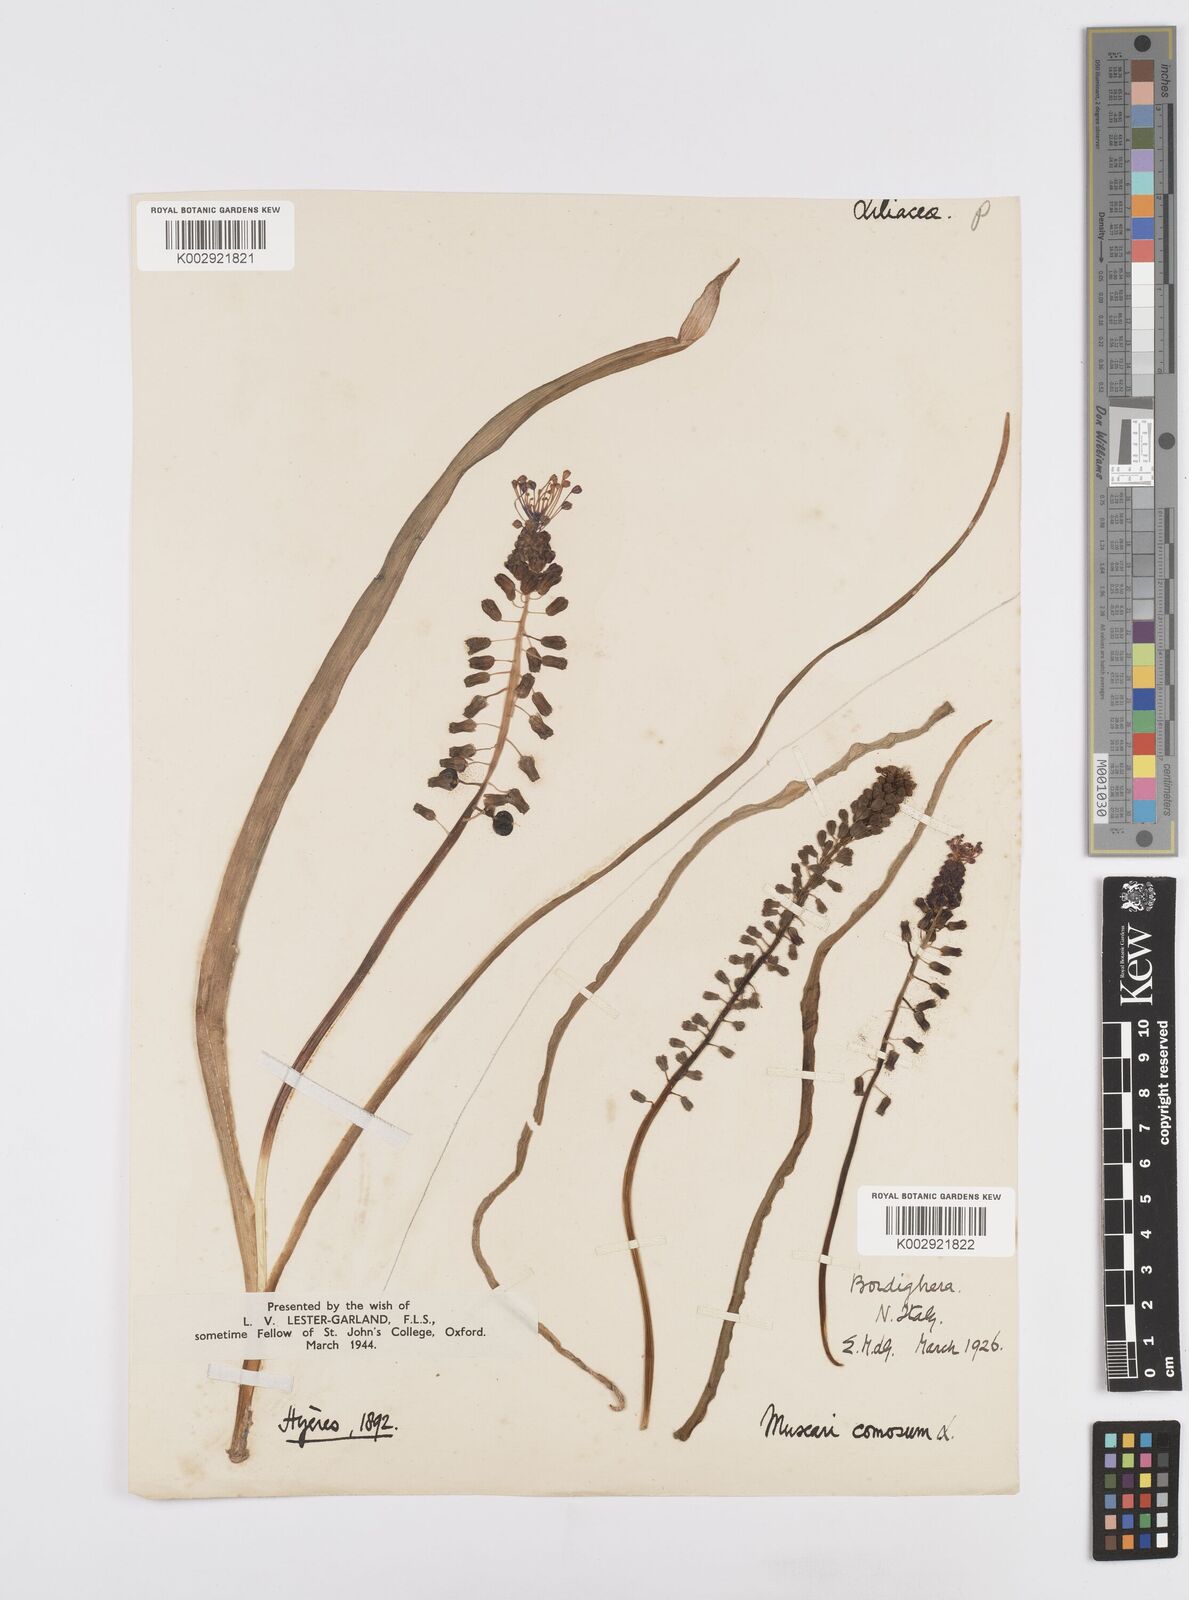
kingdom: Plantae
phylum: Tracheophyta
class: Liliopsida
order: Asparagales
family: Asparagaceae
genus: Muscari
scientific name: Muscari comosum
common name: Tassel hyacinth
